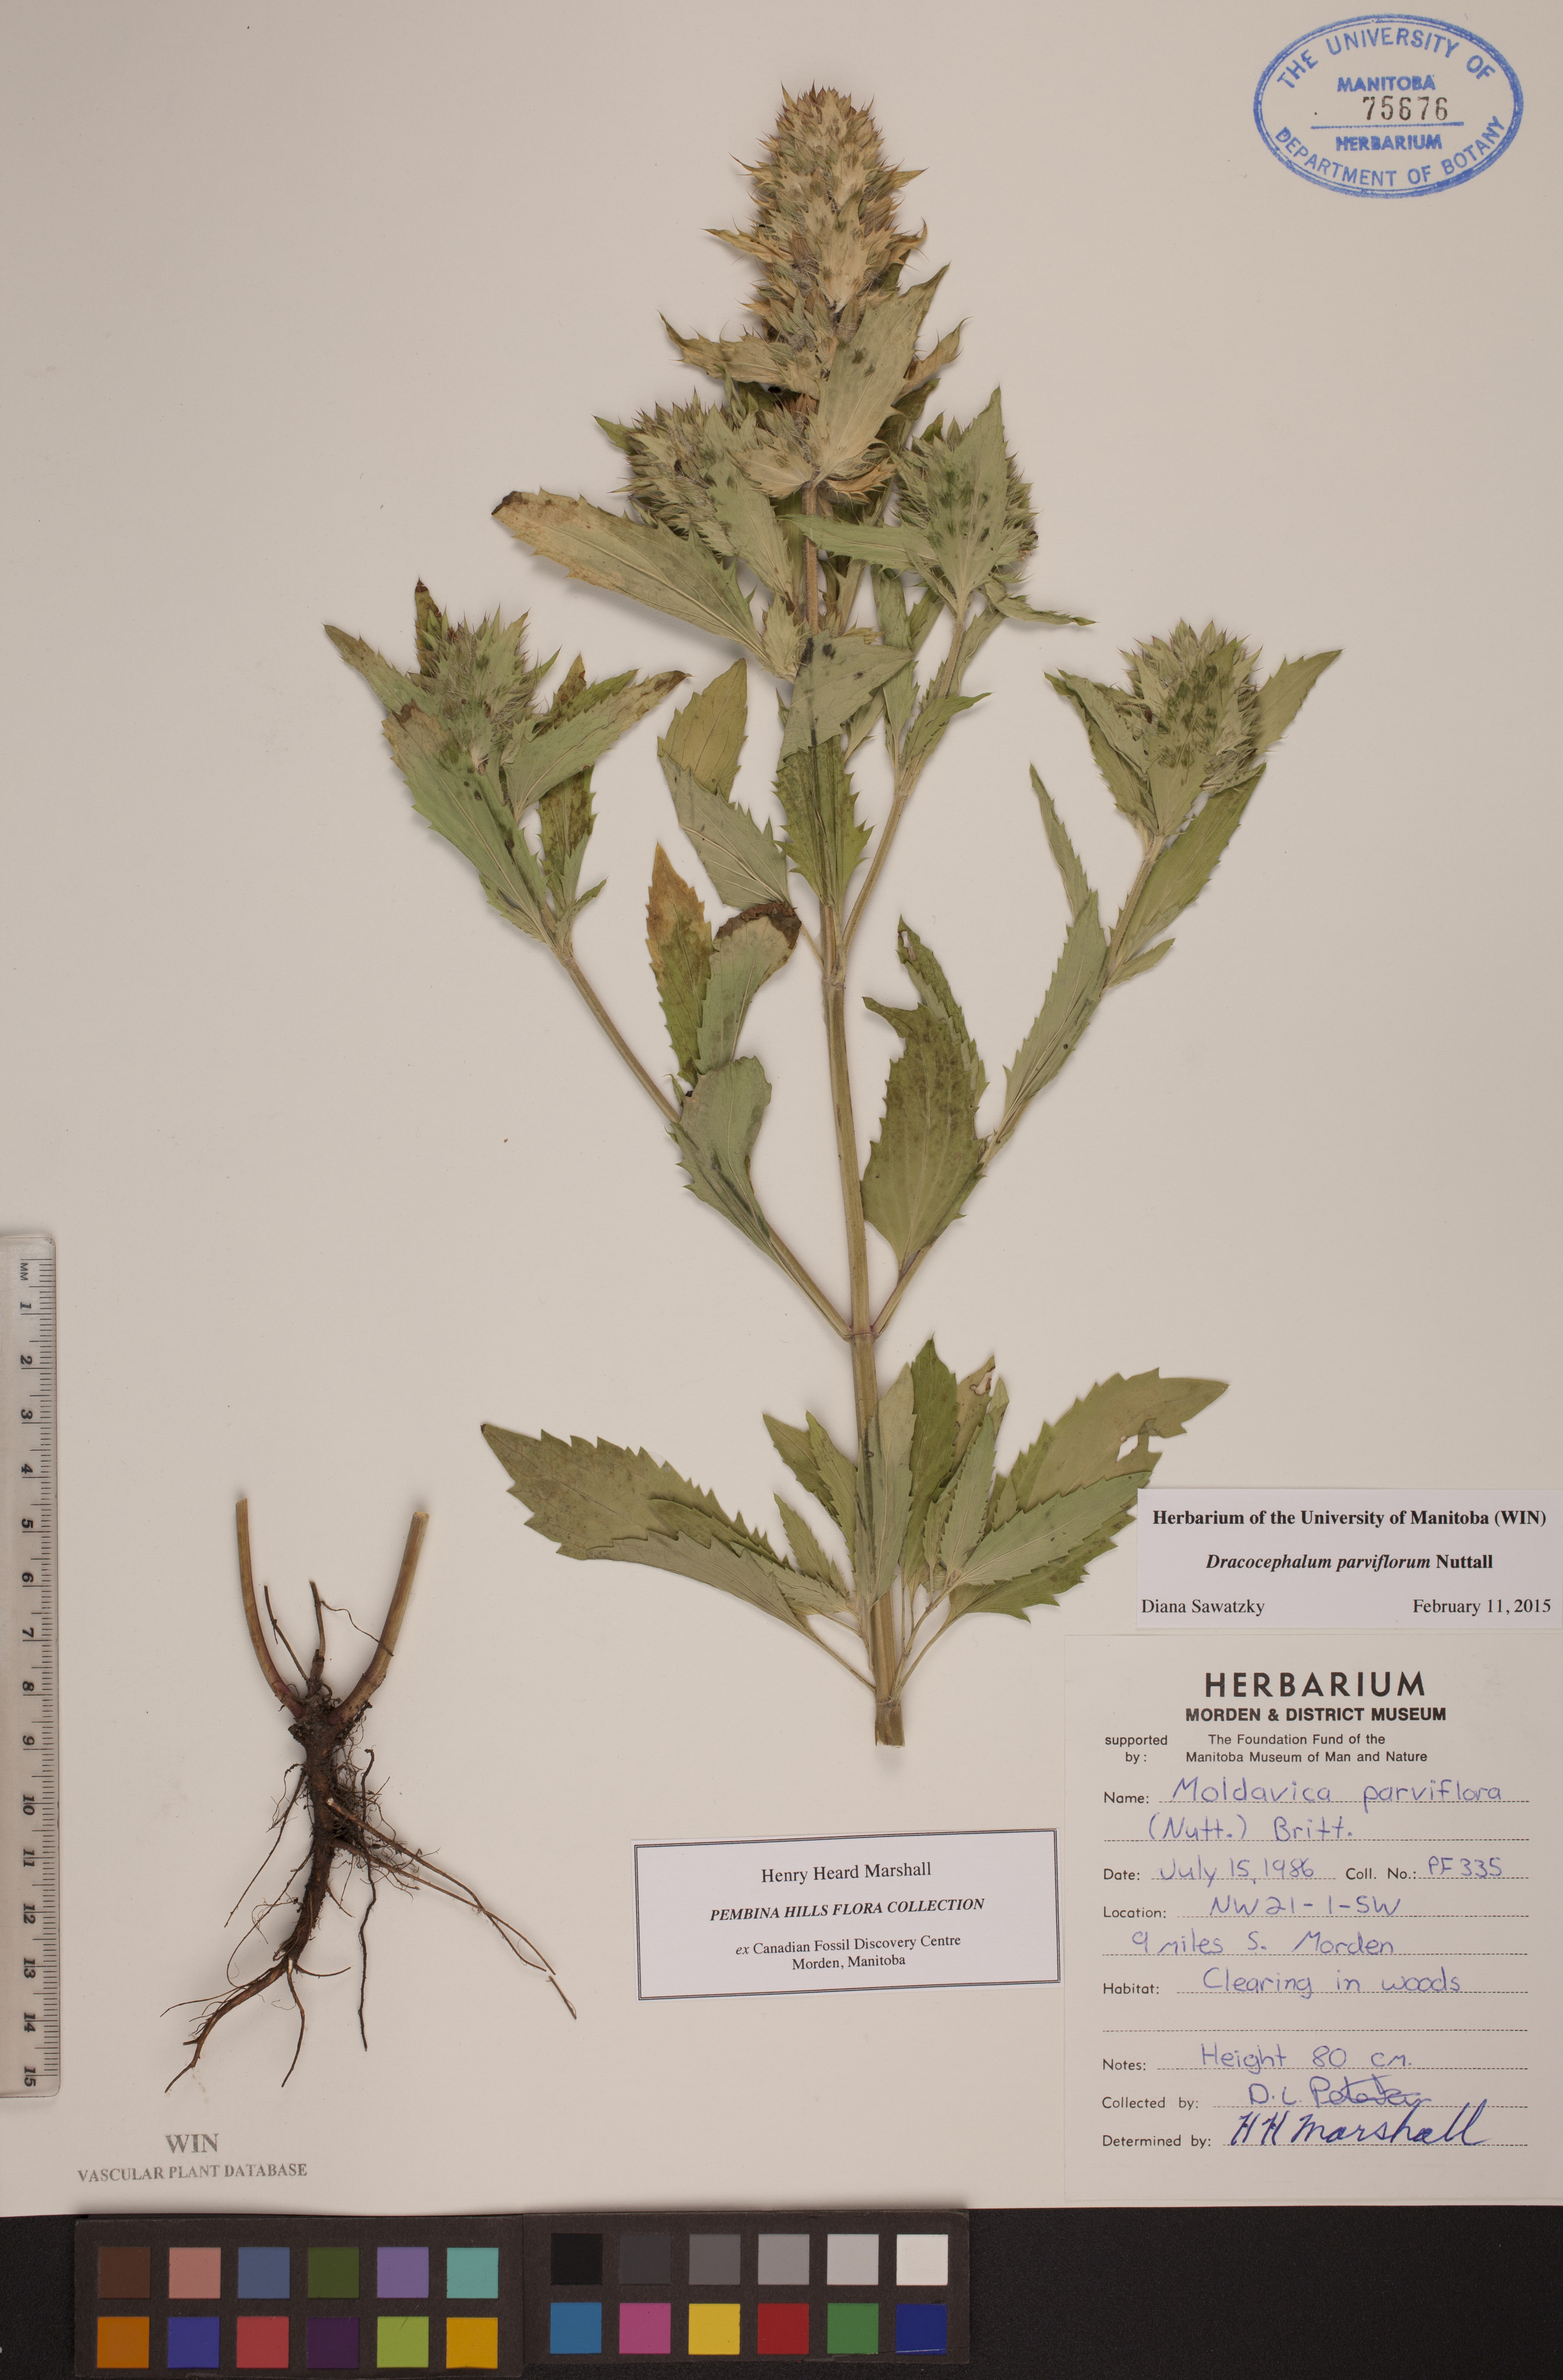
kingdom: Plantae
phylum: Tracheophyta
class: Magnoliopsida
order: Lamiales
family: Lamiaceae
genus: Dracocephalum
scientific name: Dracocephalum parviflorum
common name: American dragonhead
